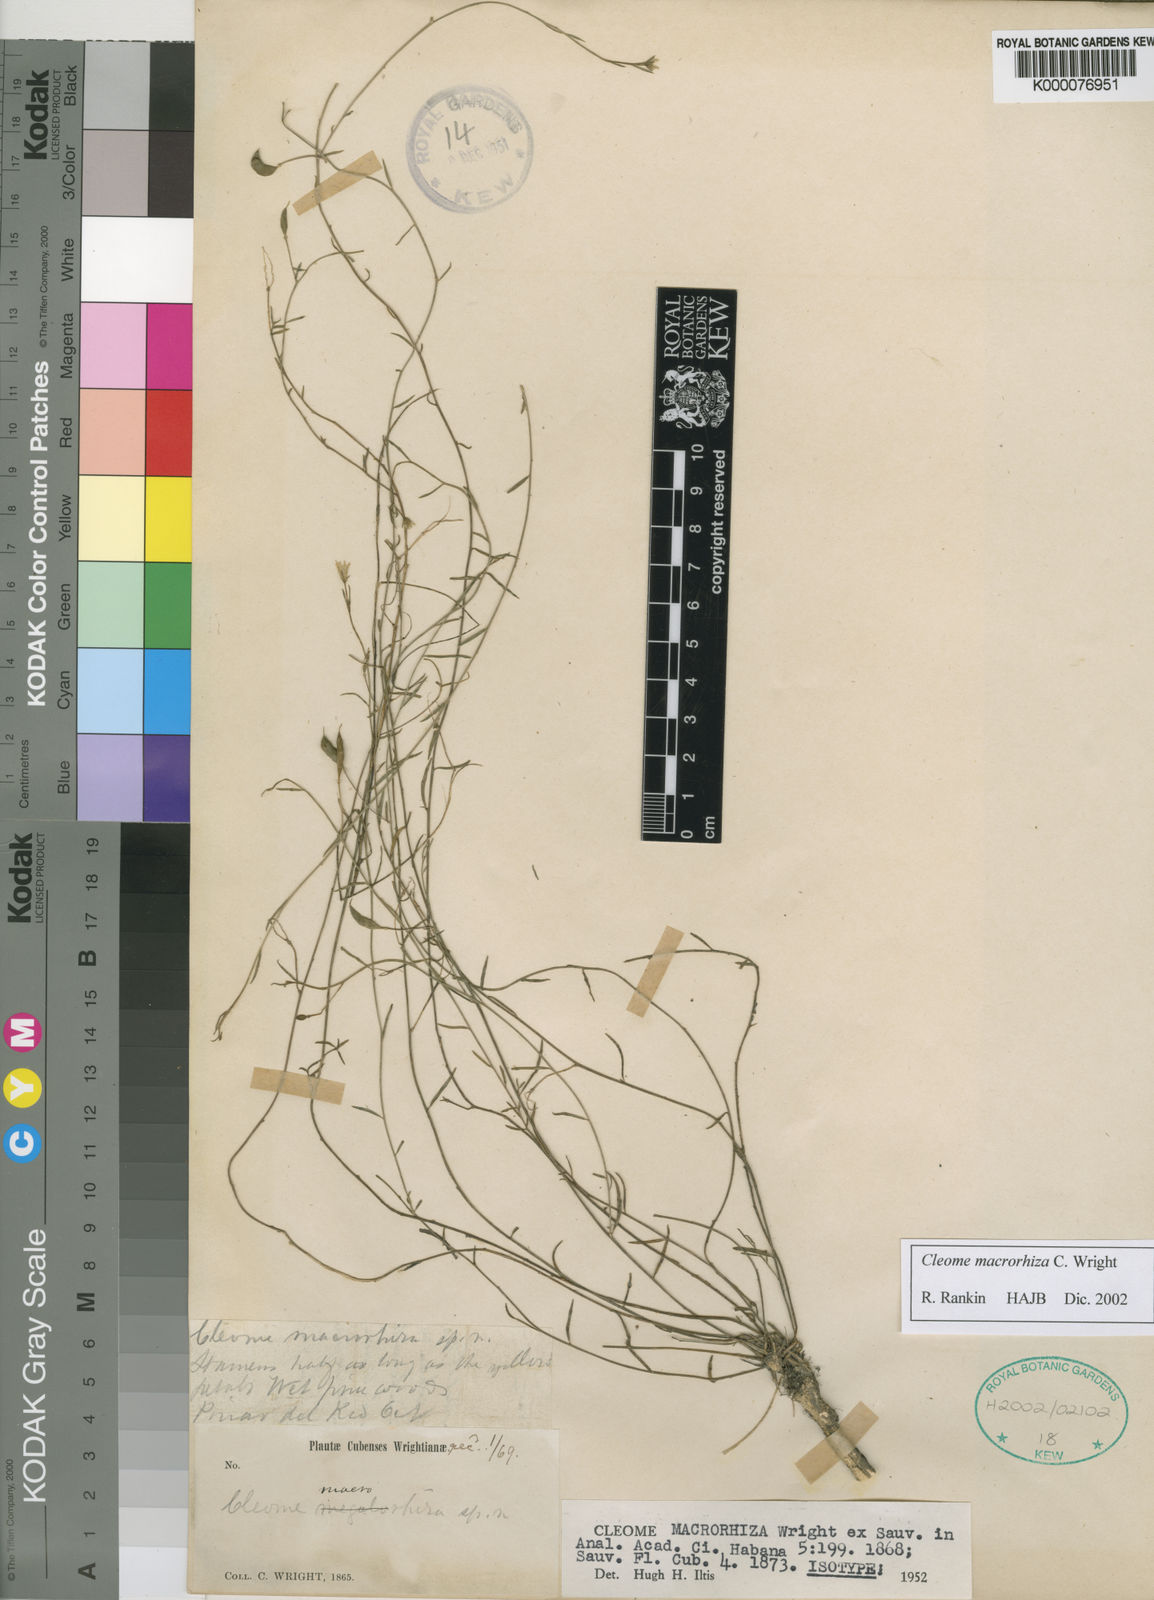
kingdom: Plantae
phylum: Tracheophyta
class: Magnoliopsida
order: Brassicales
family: Cleomaceae
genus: Cleome
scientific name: Cleome
